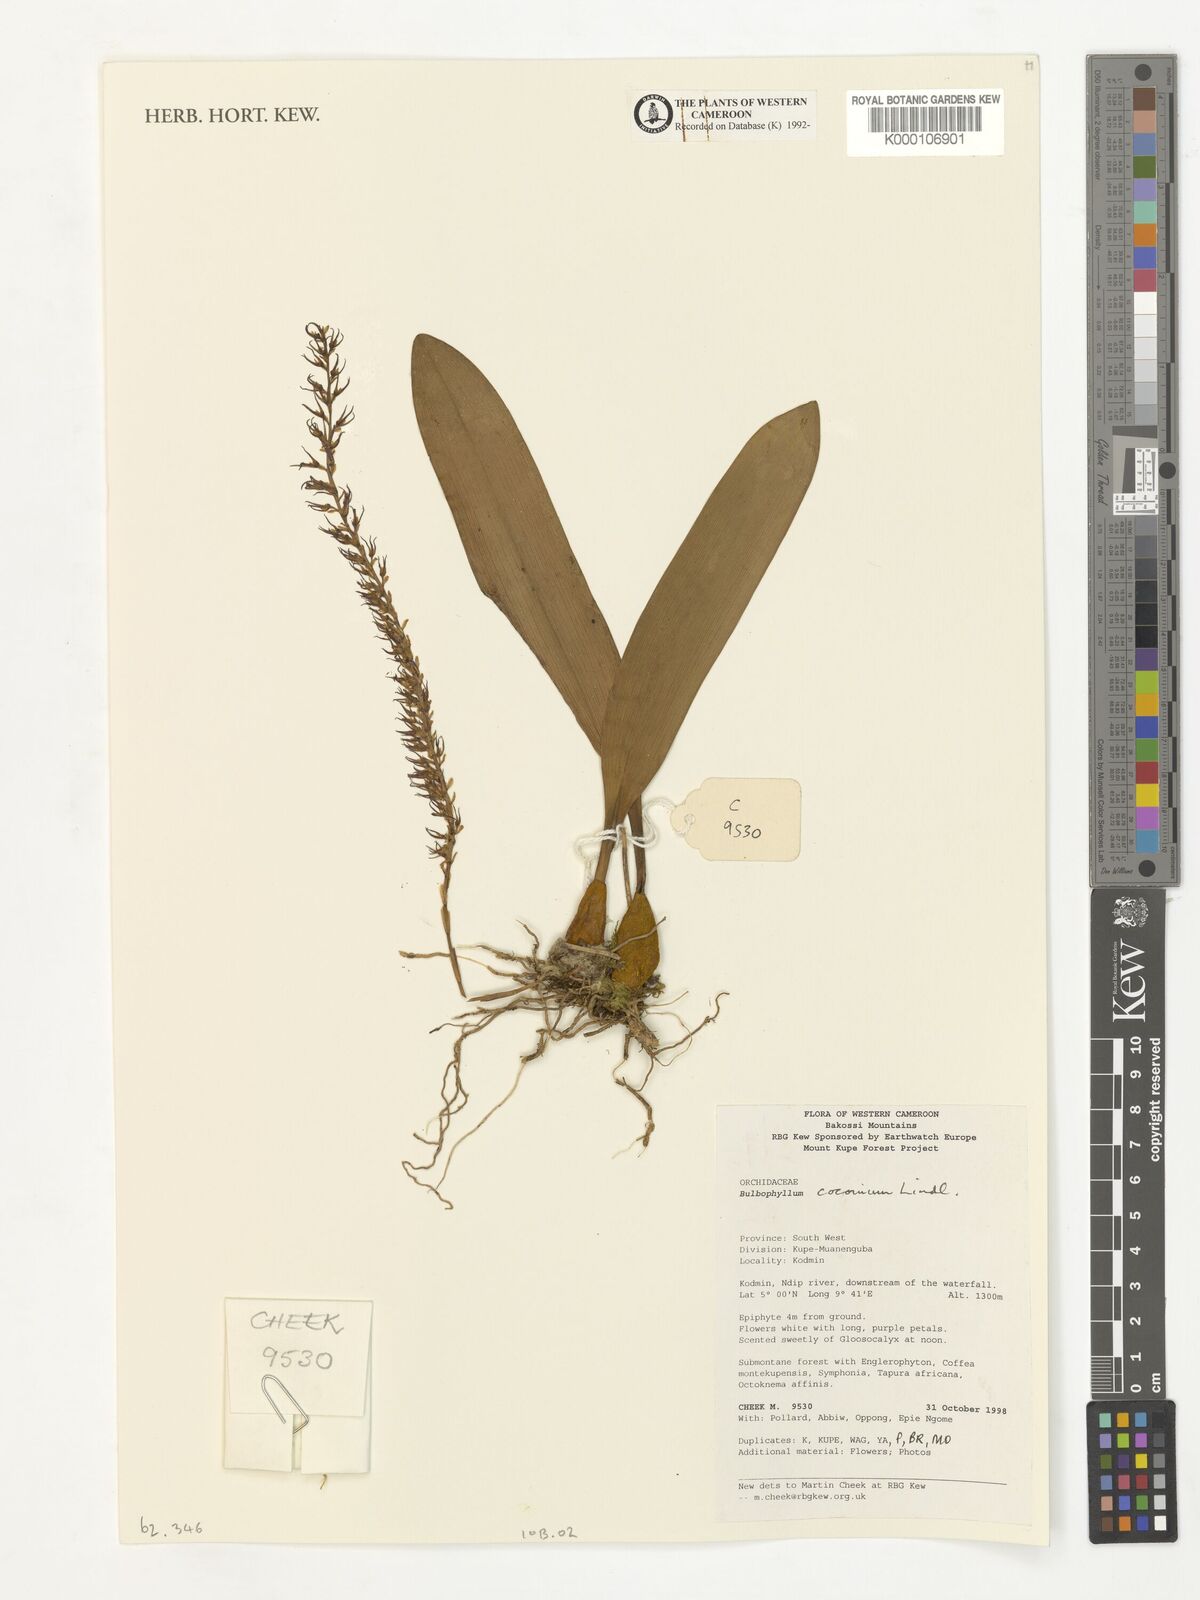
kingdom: Plantae
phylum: Tracheophyta
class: Liliopsida
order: Asparagales
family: Orchidaceae
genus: Bulbophyllum
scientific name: Bulbophyllum cocoinum
